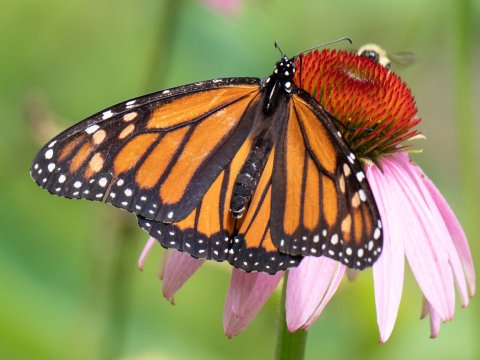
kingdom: Animalia
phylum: Arthropoda
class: Insecta
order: Lepidoptera
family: Nymphalidae
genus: Danaus
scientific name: Danaus plexippus
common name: Monarch
